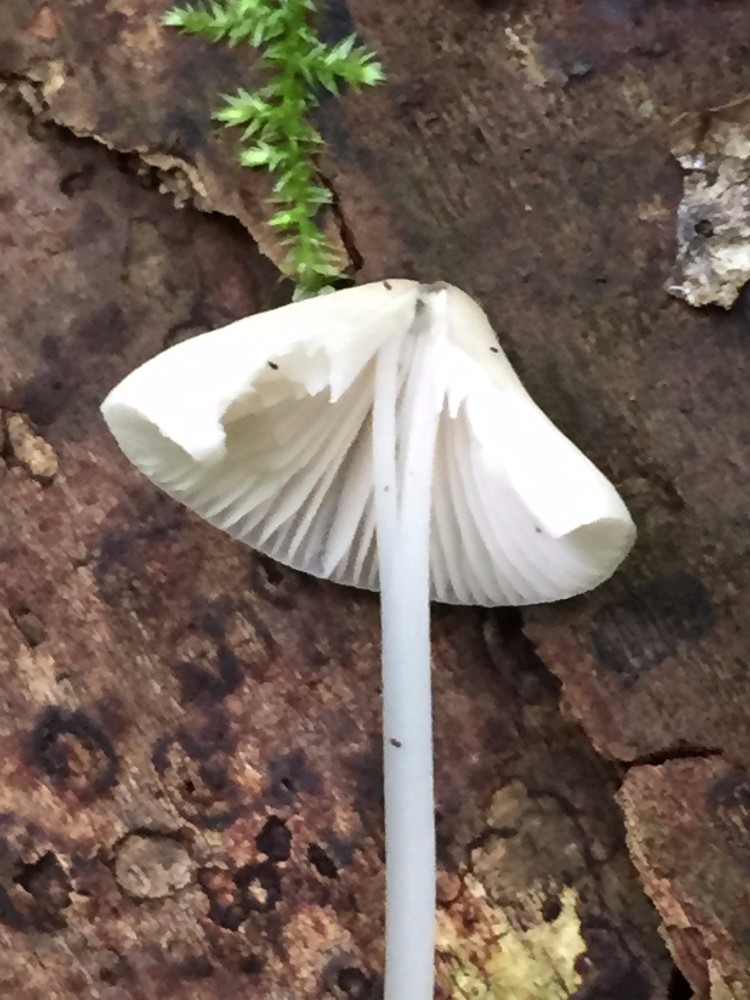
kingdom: Fungi
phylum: Basidiomycota
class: Agaricomycetes
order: Agaricales
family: Mycenaceae
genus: Mycena
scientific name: Mycena vitilis
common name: blankstokket huesvamp
